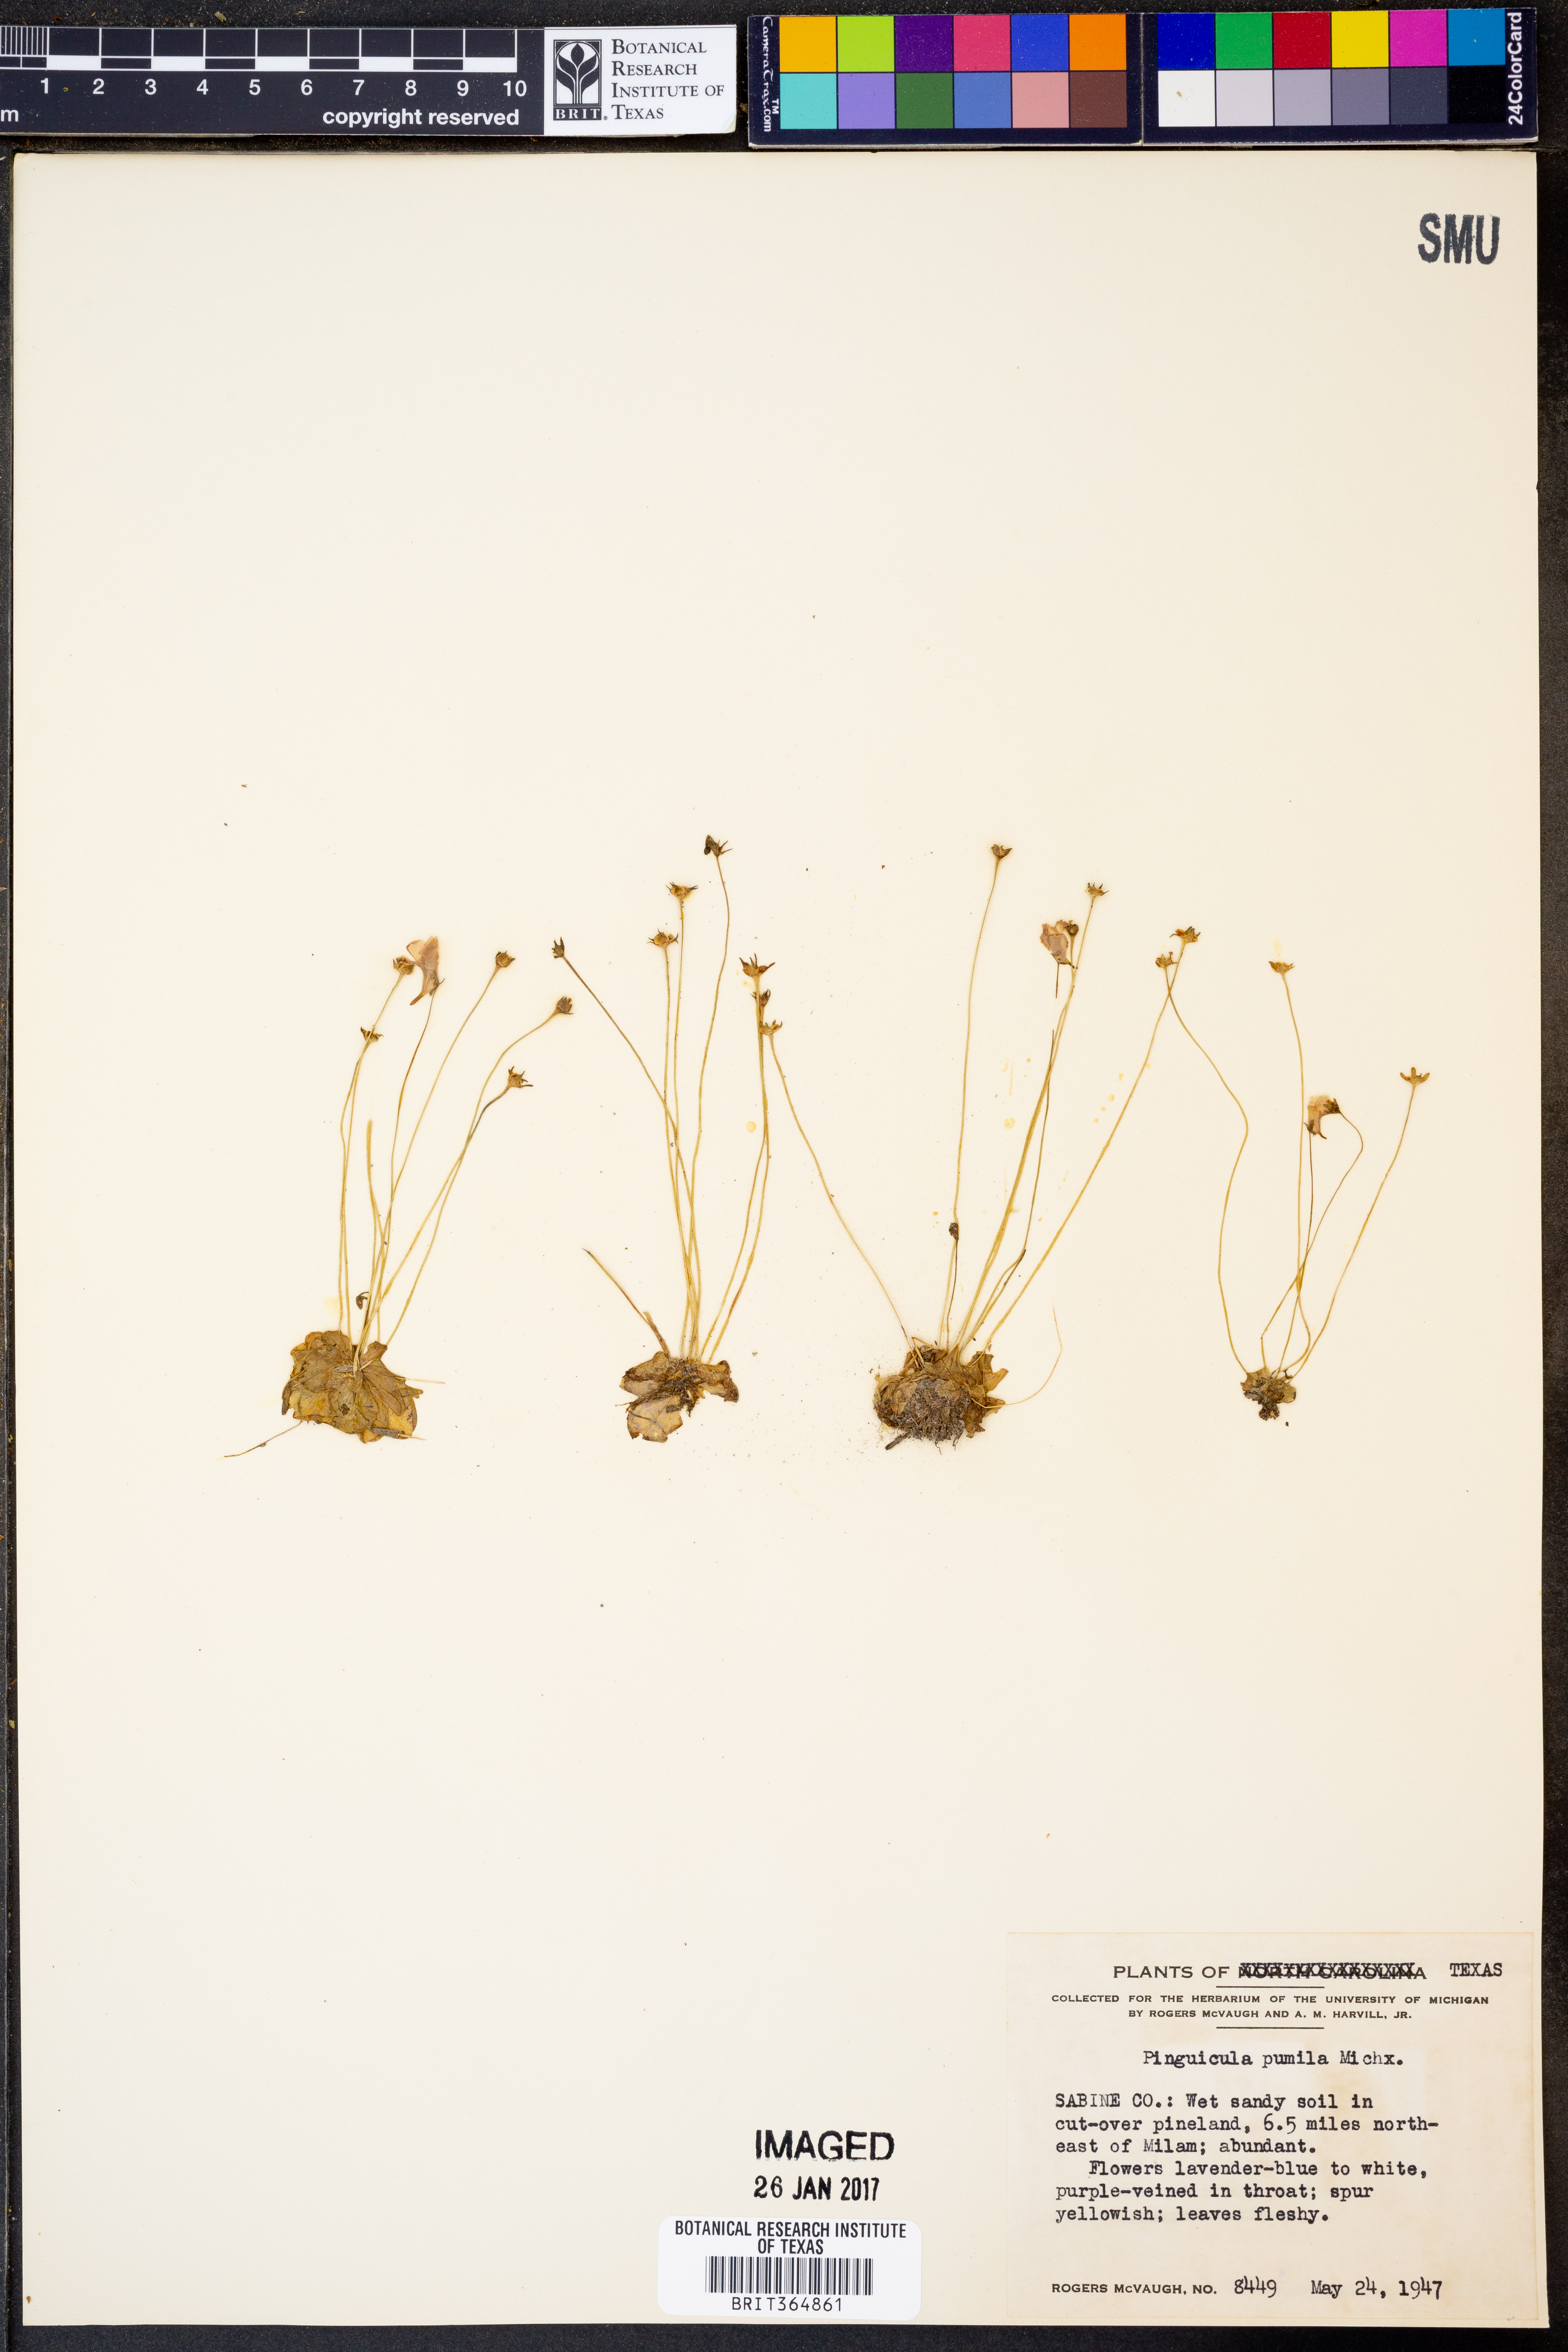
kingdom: Plantae
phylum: Tracheophyta
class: Magnoliopsida
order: Lamiales
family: Lentibulariaceae
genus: Pinguicula
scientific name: Pinguicula pumila
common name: Small butterwort
